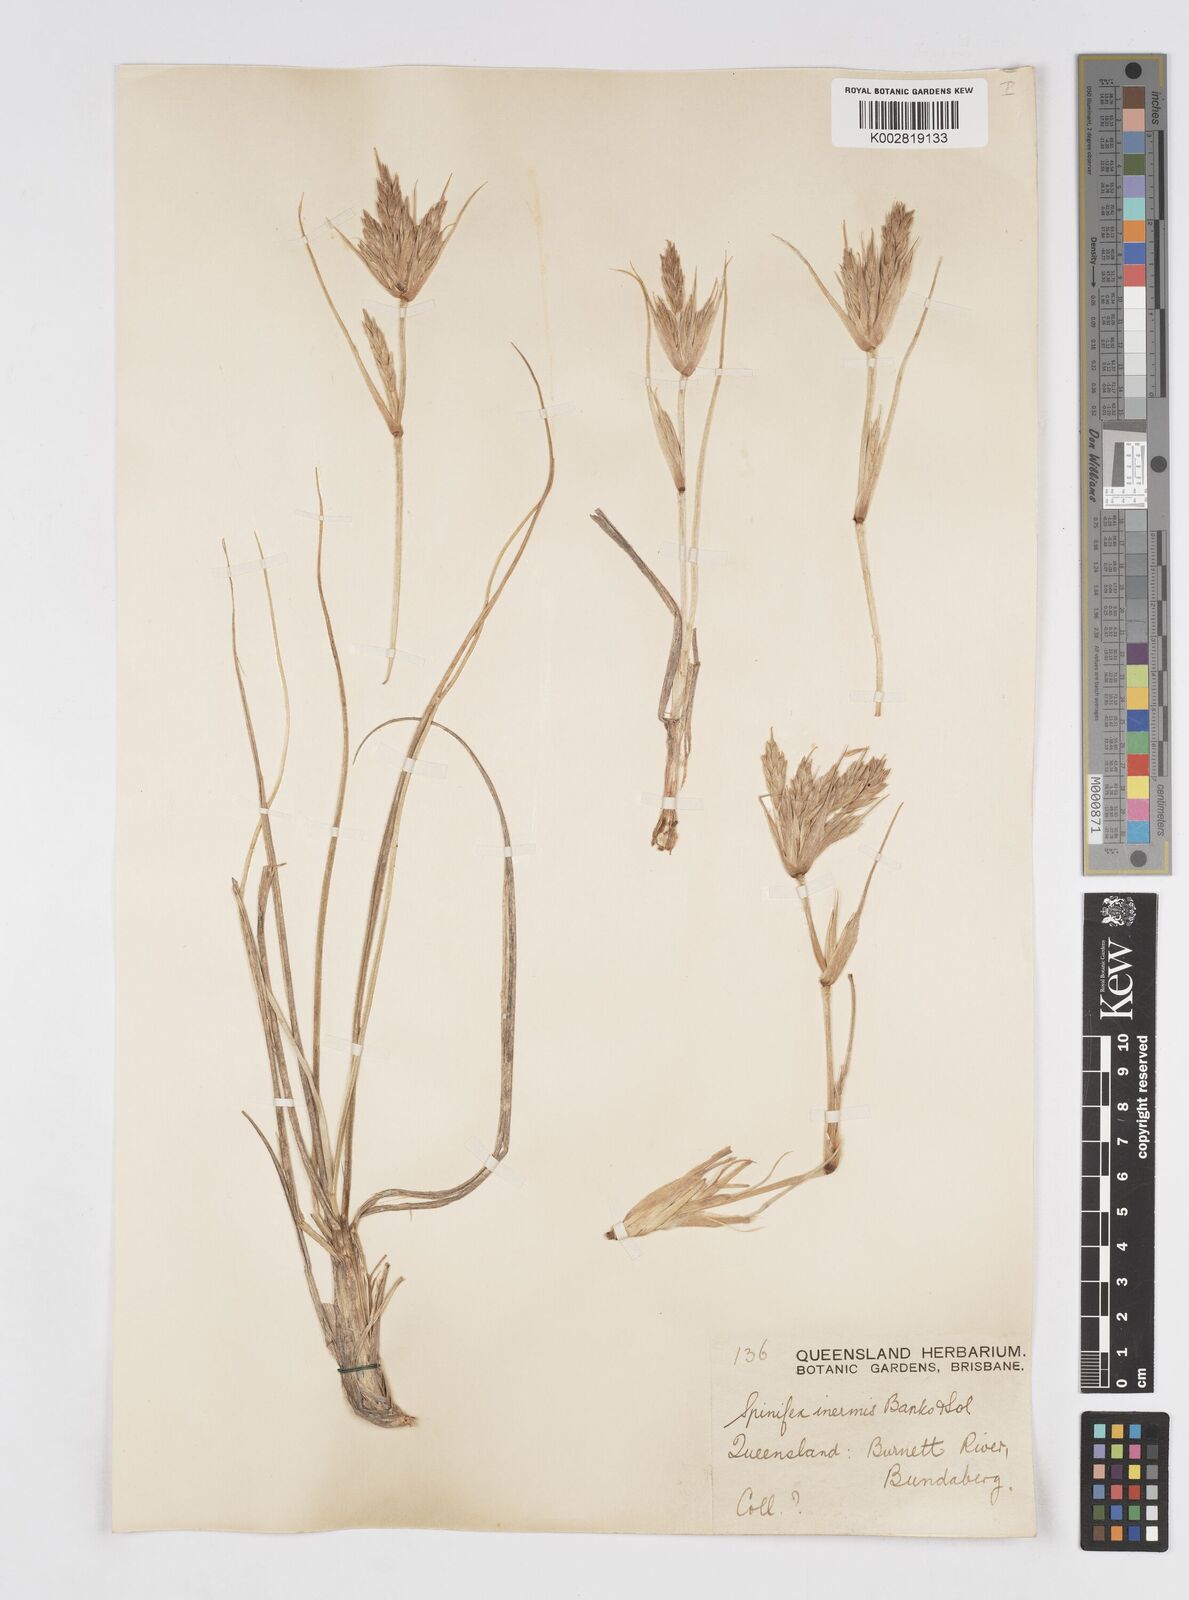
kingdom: Plantae
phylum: Tracheophyta
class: Liliopsida
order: Poales
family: Poaceae
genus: Spinifex
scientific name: Spinifex sericeus
